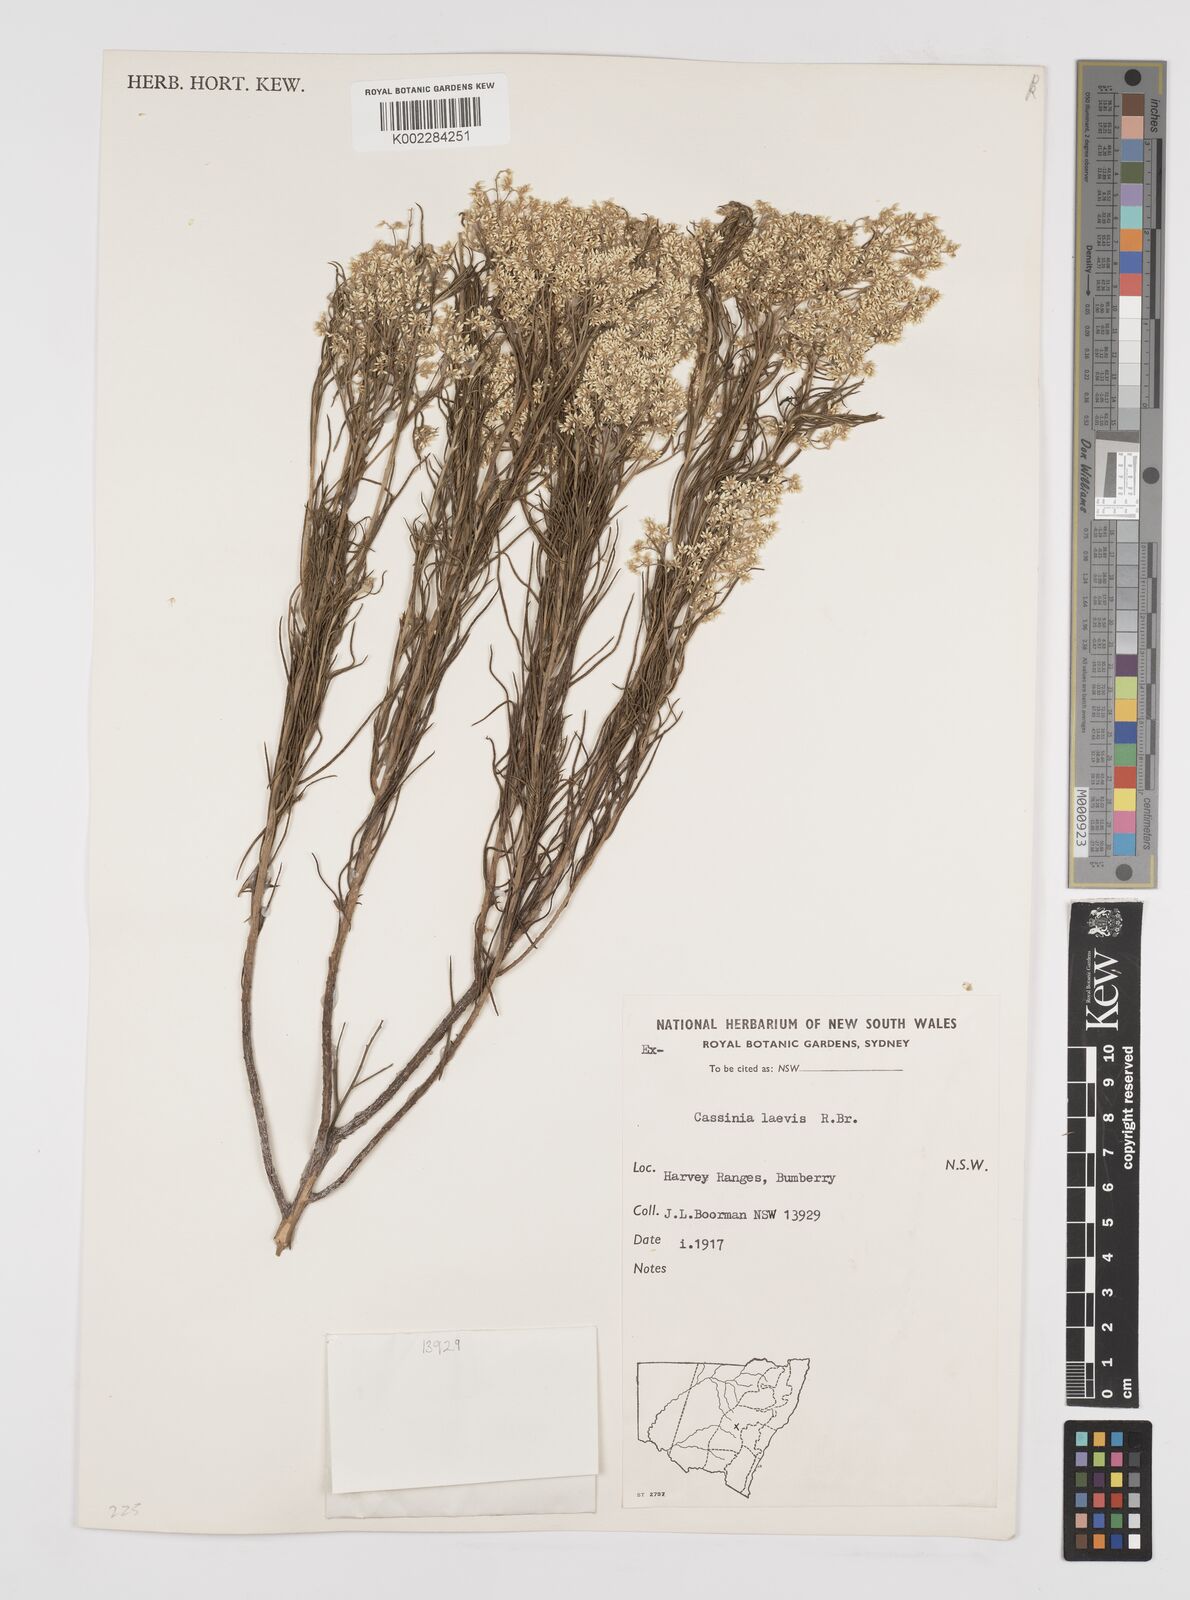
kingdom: Plantae
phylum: Tracheophyta
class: Magnoliopsida
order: Asterales
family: Asteraceae
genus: Cassinia
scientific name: Cassinia laevis
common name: Coughbush
